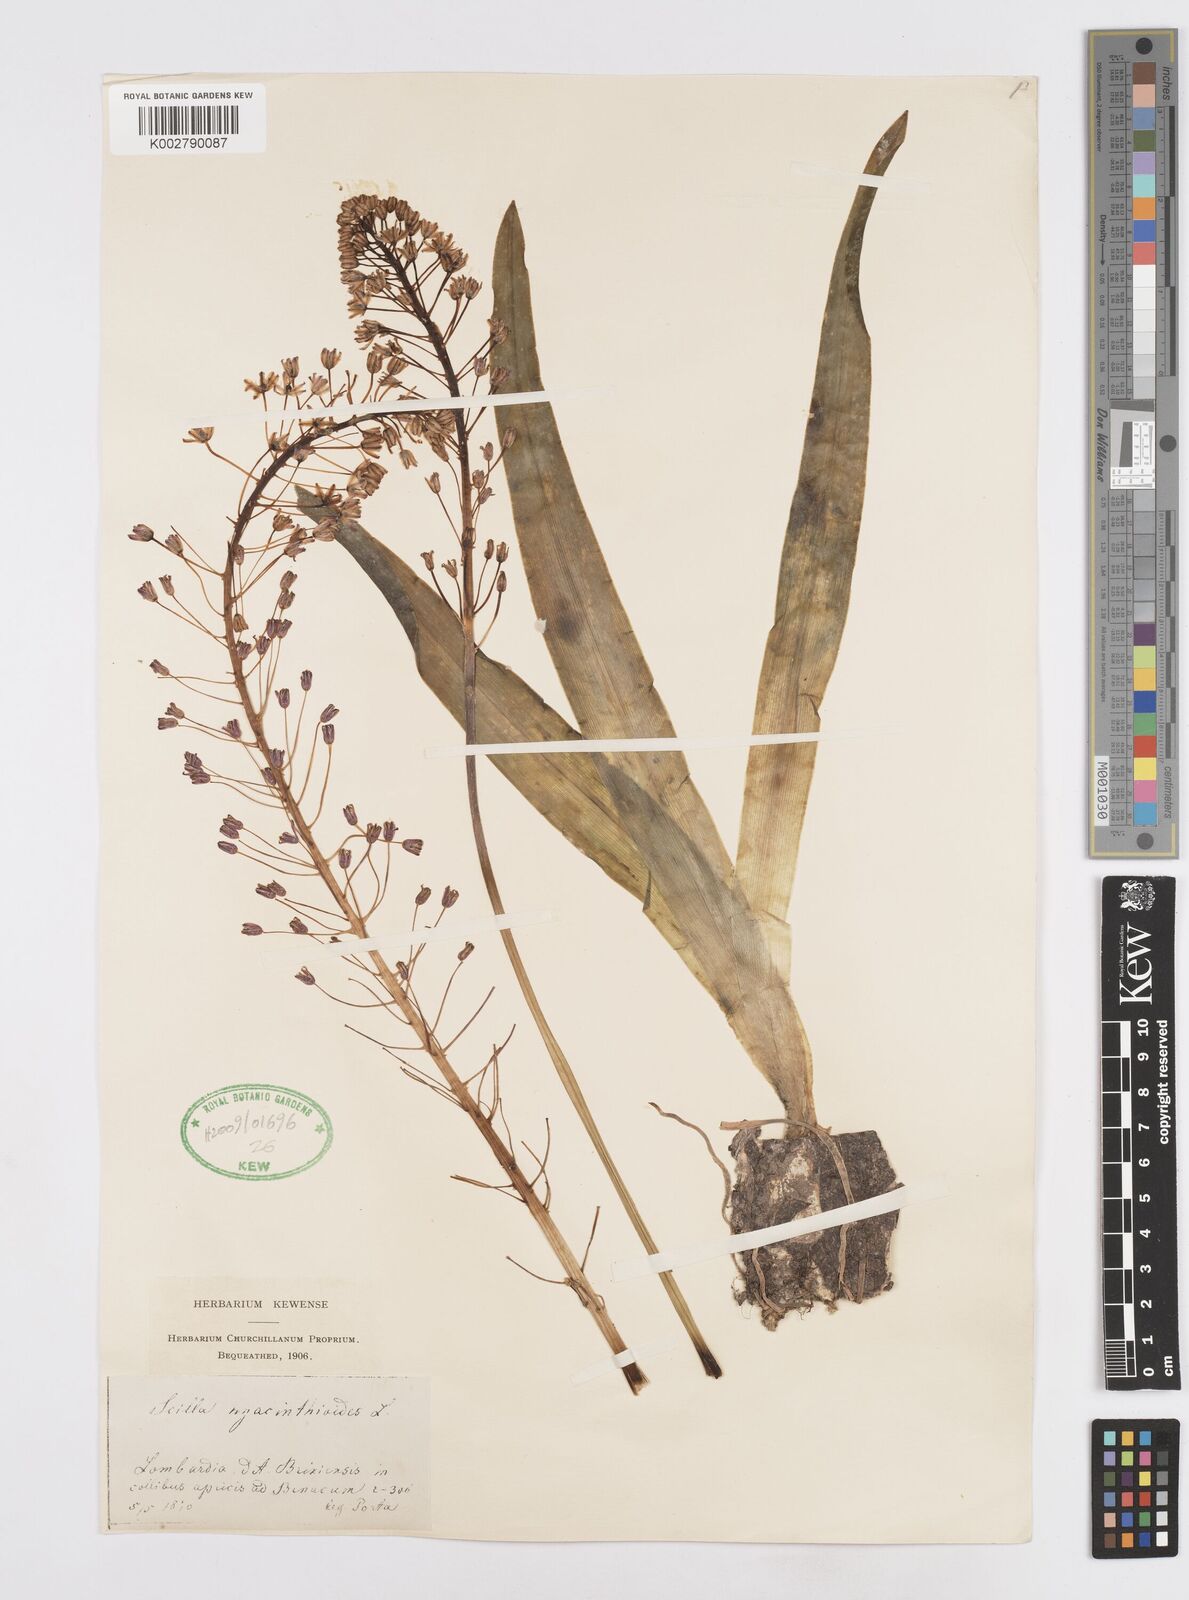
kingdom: Plantae
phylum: Tracheophyta
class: Liliopsida
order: Asparagales
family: Asparagaceae
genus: Scilla
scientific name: Scilla hyacinthoides
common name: Scilla
